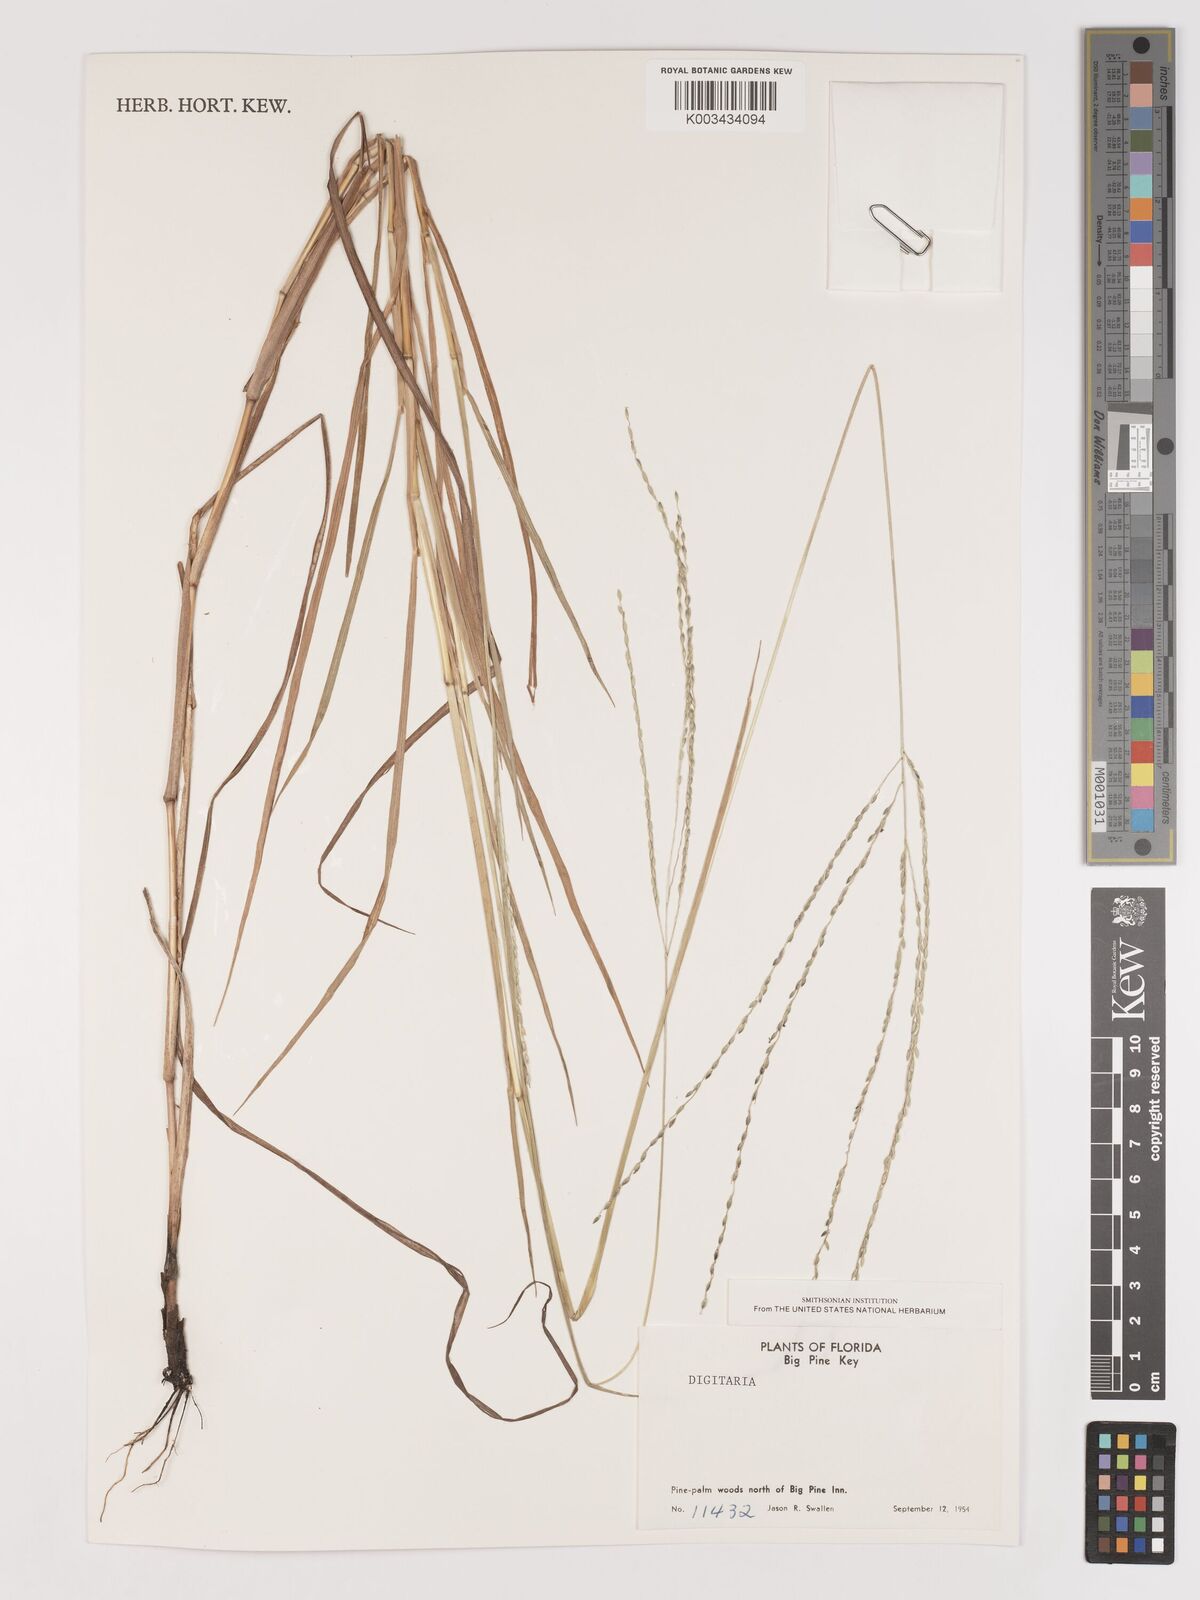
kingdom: Plantae
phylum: Tracheophyta
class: Liliopsida
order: Poales
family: Poaceae
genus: Digitaria
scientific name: Digitaria spec
